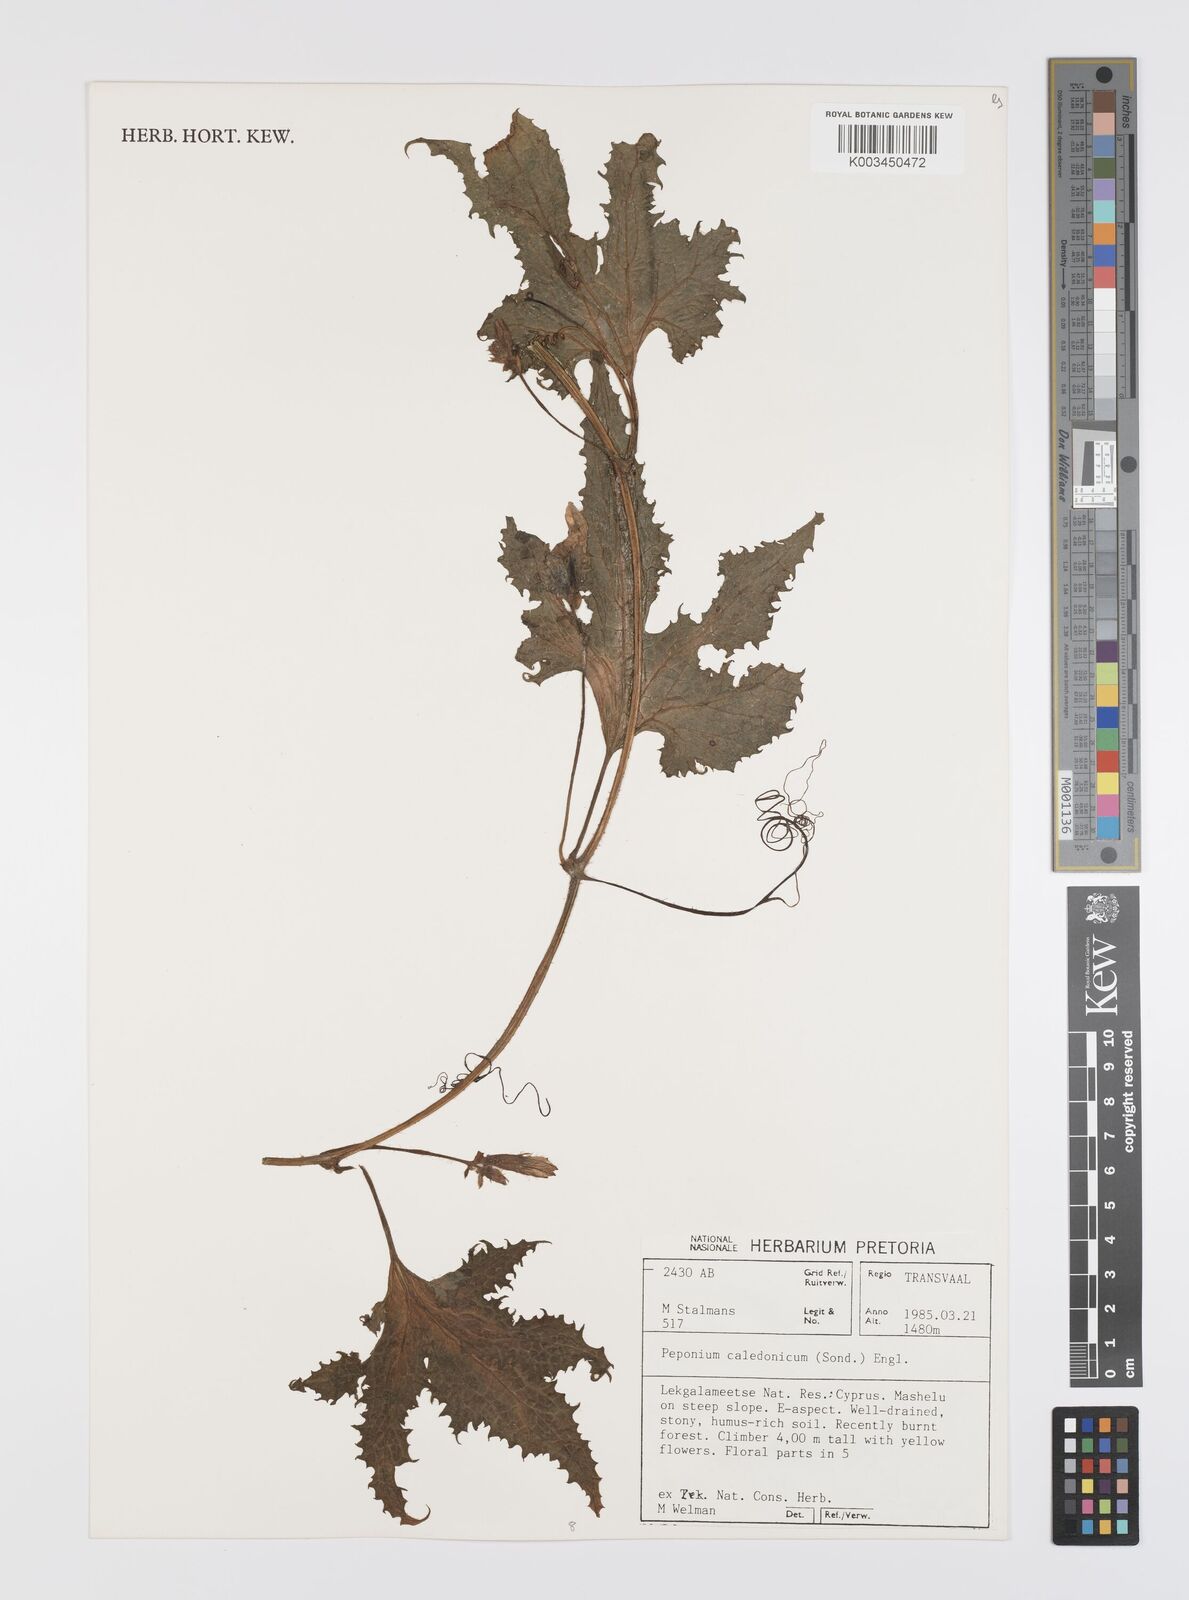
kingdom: Plantae
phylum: Tracheophyta
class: Magnoliopsida
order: Cucurbitales
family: Cucurbitaceae
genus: Peponium
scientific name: Peponium caledonicum
